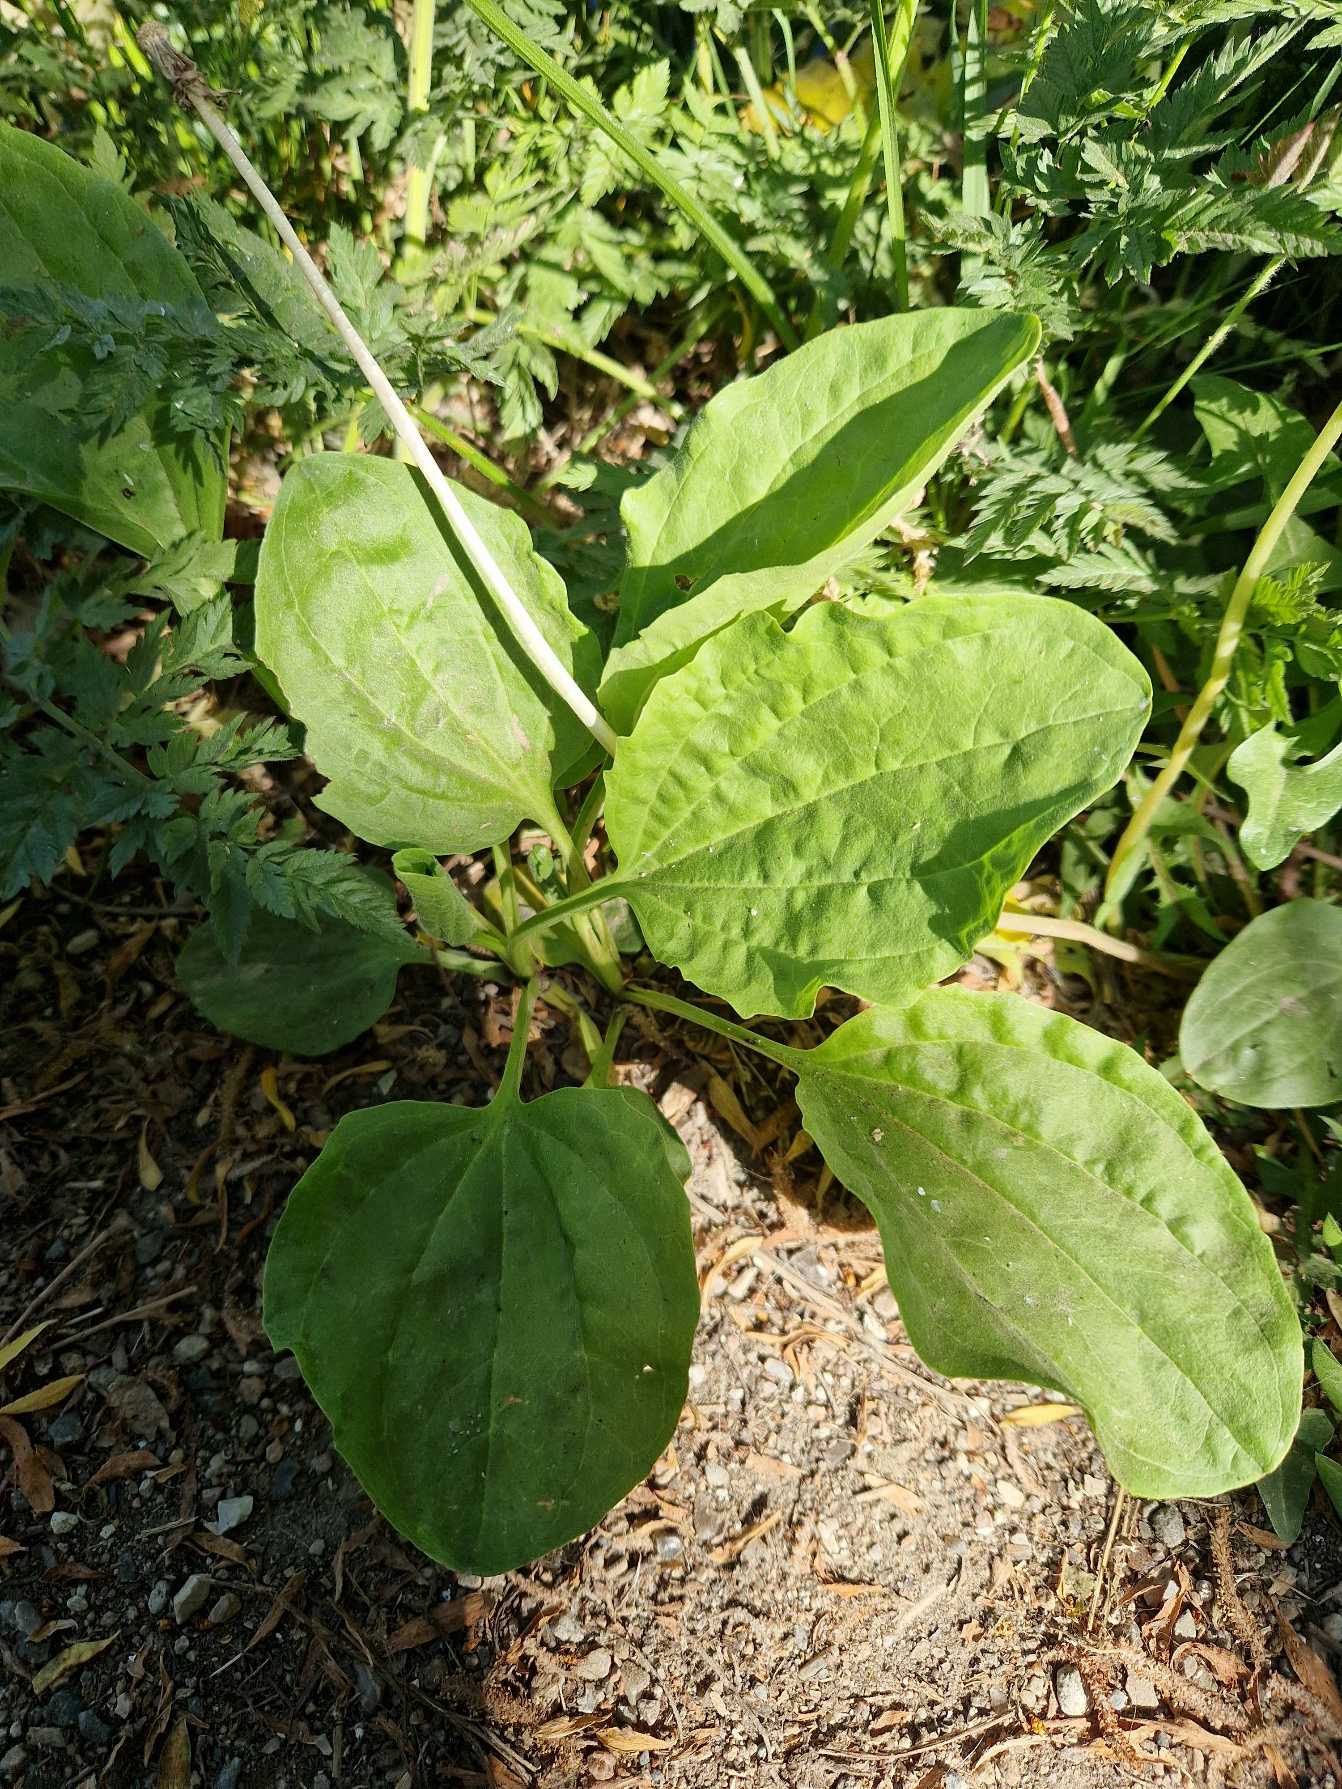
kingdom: Plantae
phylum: Tracheophyta
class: Magnoliopsida
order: Lamiales
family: Plantaginaceae
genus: Plantago
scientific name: Plantago major
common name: Glat vejbred
